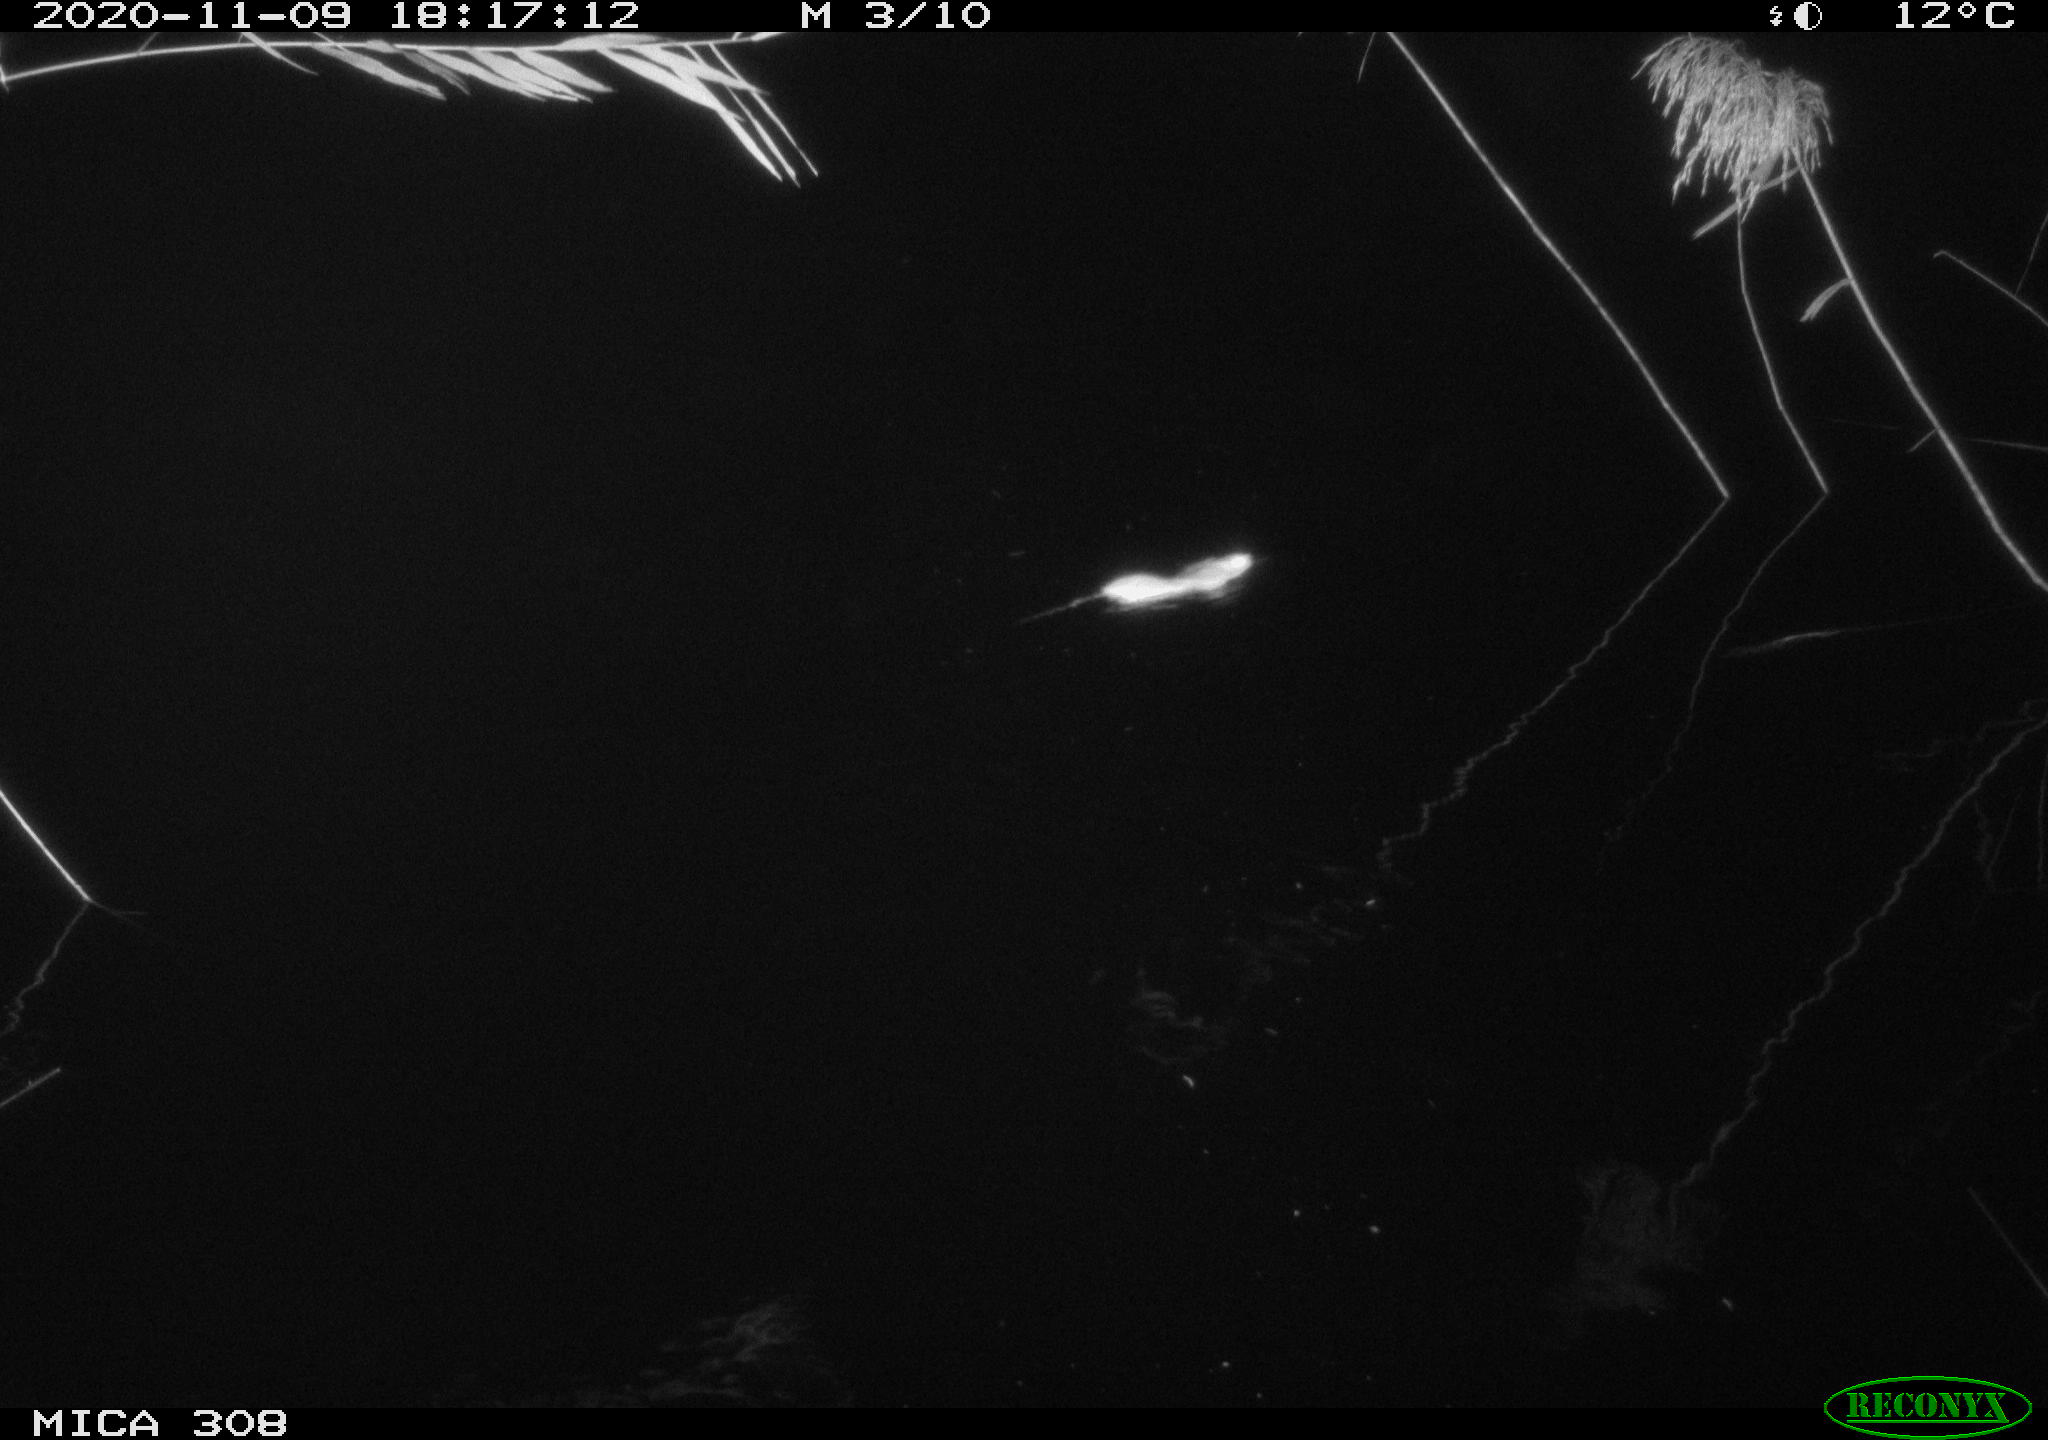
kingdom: Animalia
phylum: Chordata
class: Mammalia
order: Rodentia
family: Muridae
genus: Rattus
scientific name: Rattus norvegicus
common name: Brown rat
